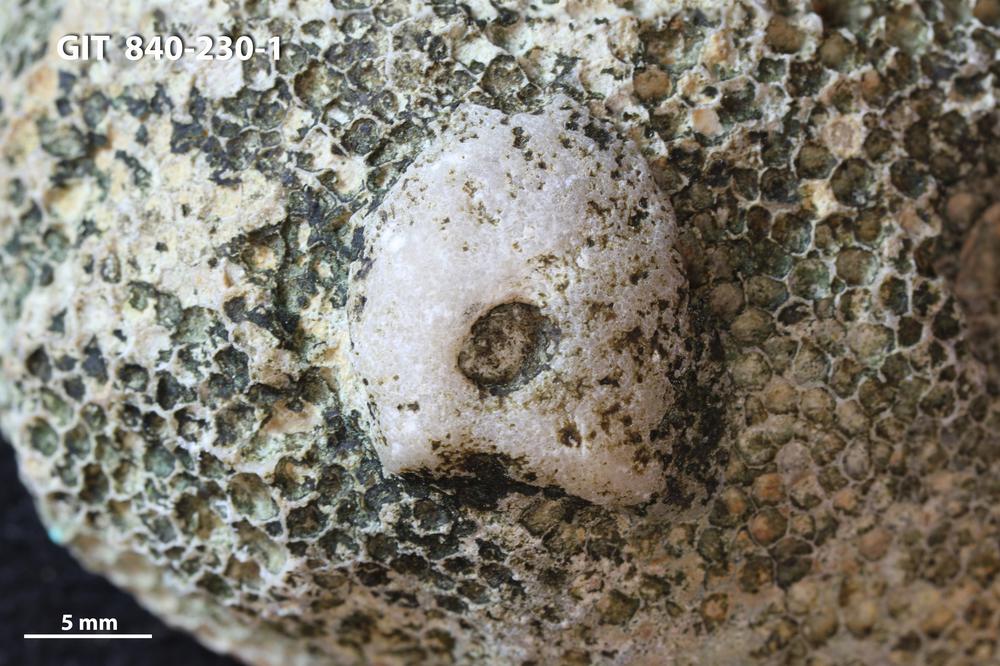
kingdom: Animalia
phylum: Bryozoa
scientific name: Bryozoa
